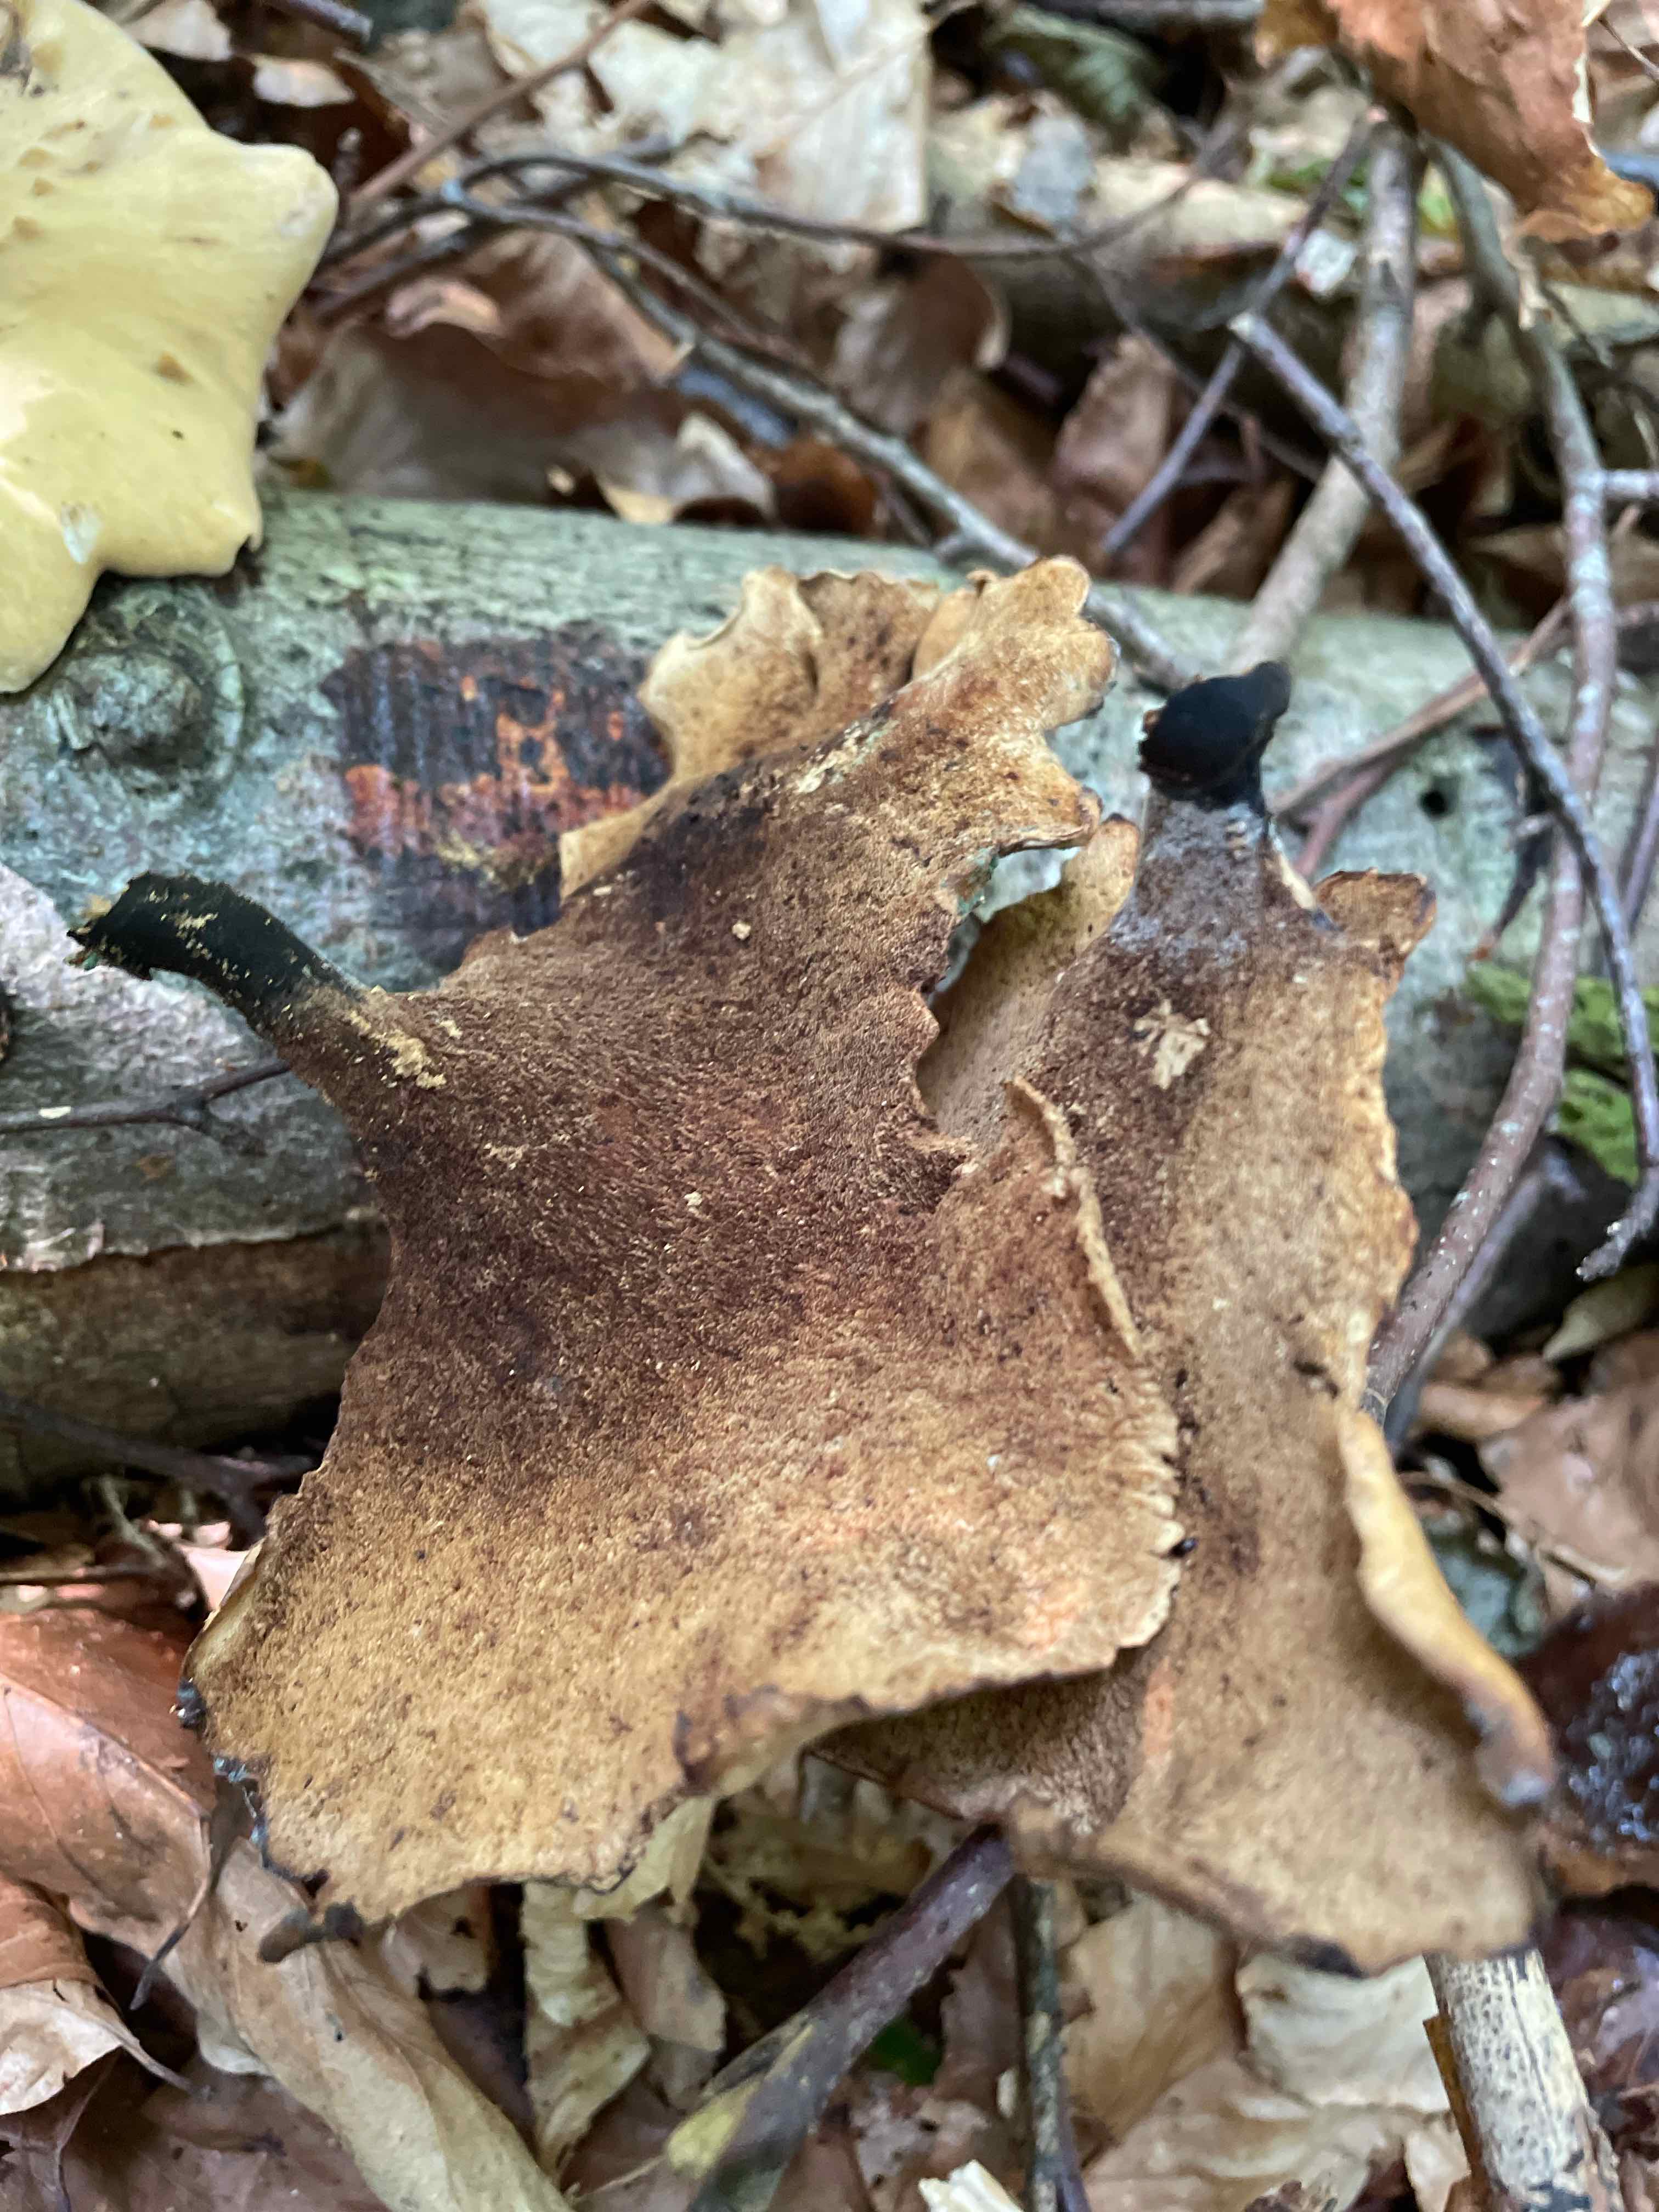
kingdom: Fungi
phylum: Basidiomycota
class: Agaricomycetes
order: Polyporales
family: Polyporaceae
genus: Cerioporus
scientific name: Cerioporus varius
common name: foranderlig stilkporesvamp
